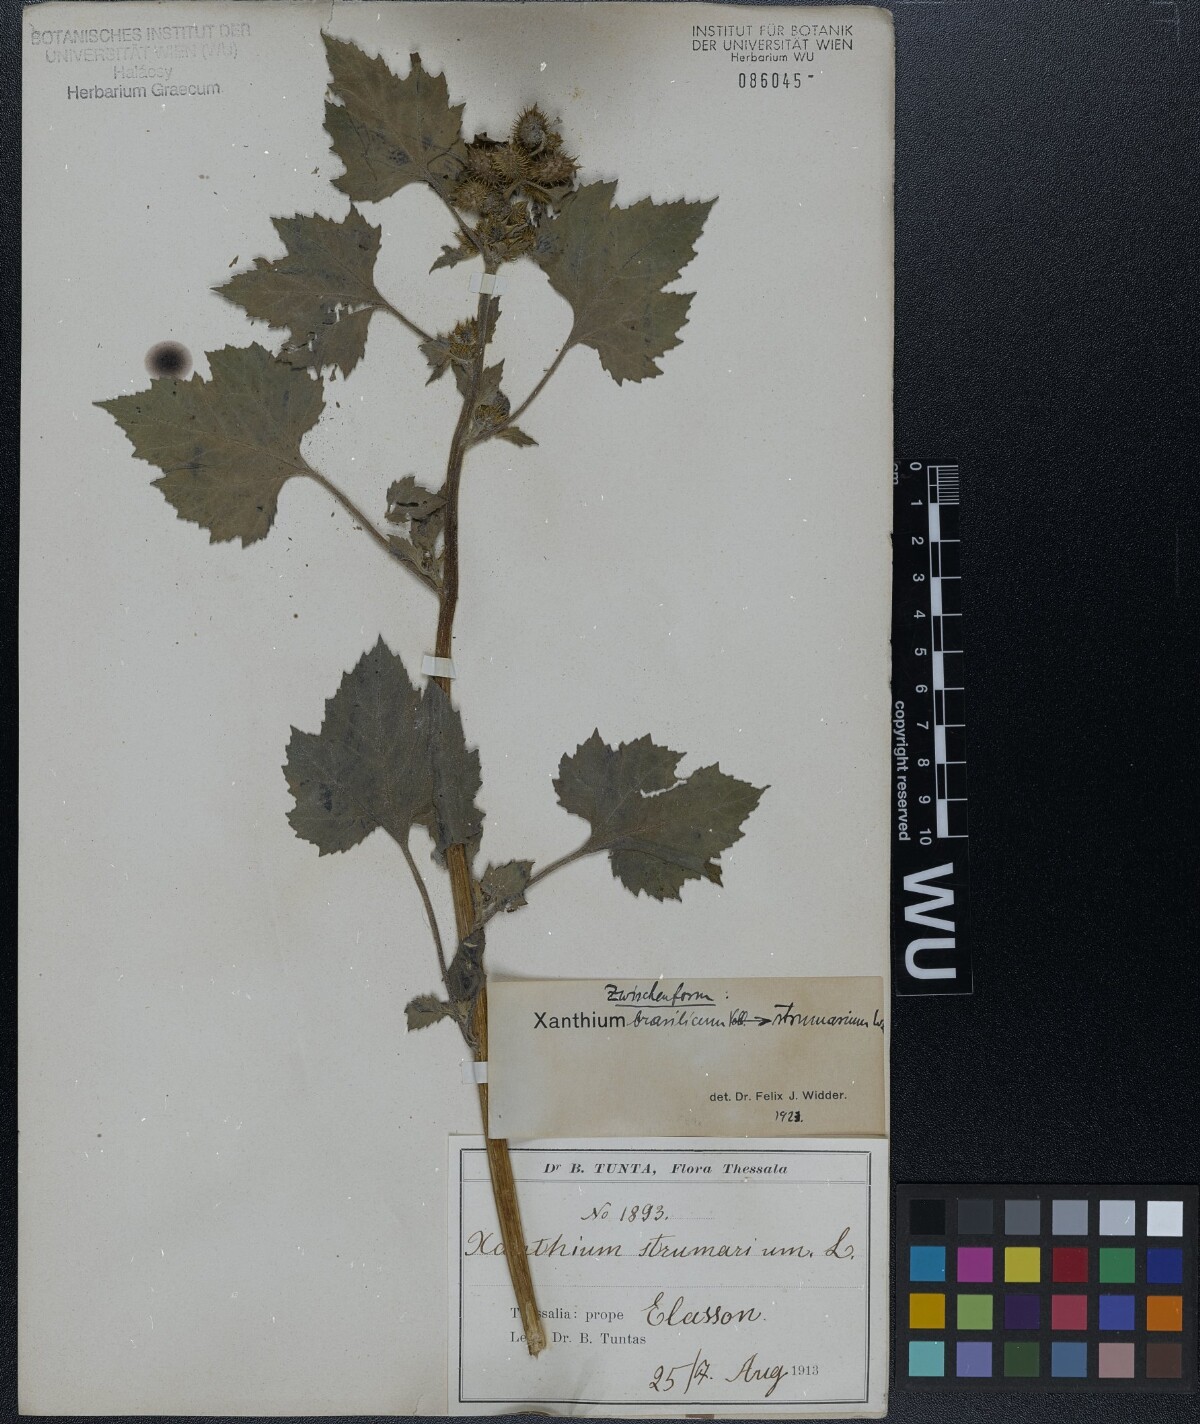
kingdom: Plantae
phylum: Tracheophyta
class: Magnoliopsida
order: Asterales
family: Asteraceae
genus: Xanthium
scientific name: Xanthium strumarium
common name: Rough cocklebur
